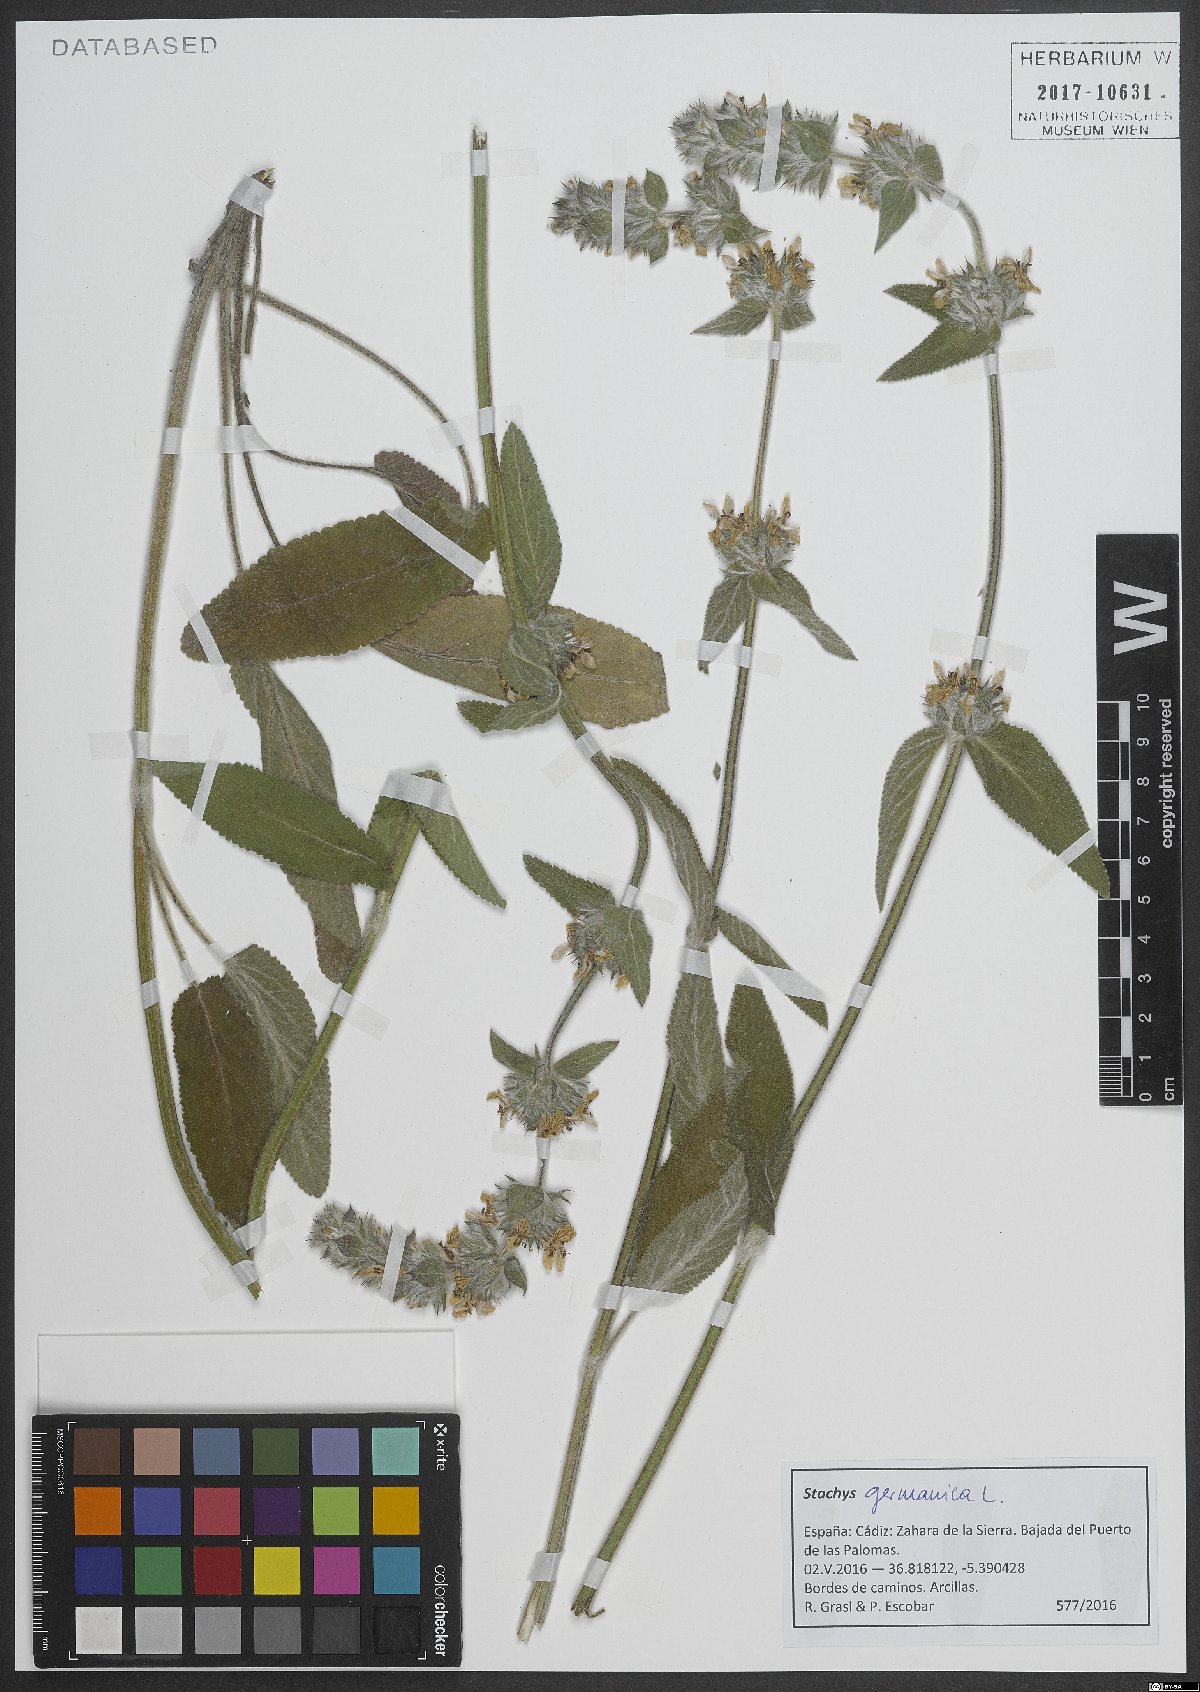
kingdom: Plantae
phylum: Tracheophyta
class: Magnoliopsida
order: Lamiales
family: Lamiaceae
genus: Stachys
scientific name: Stachys germanica
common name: Downy woundwort
